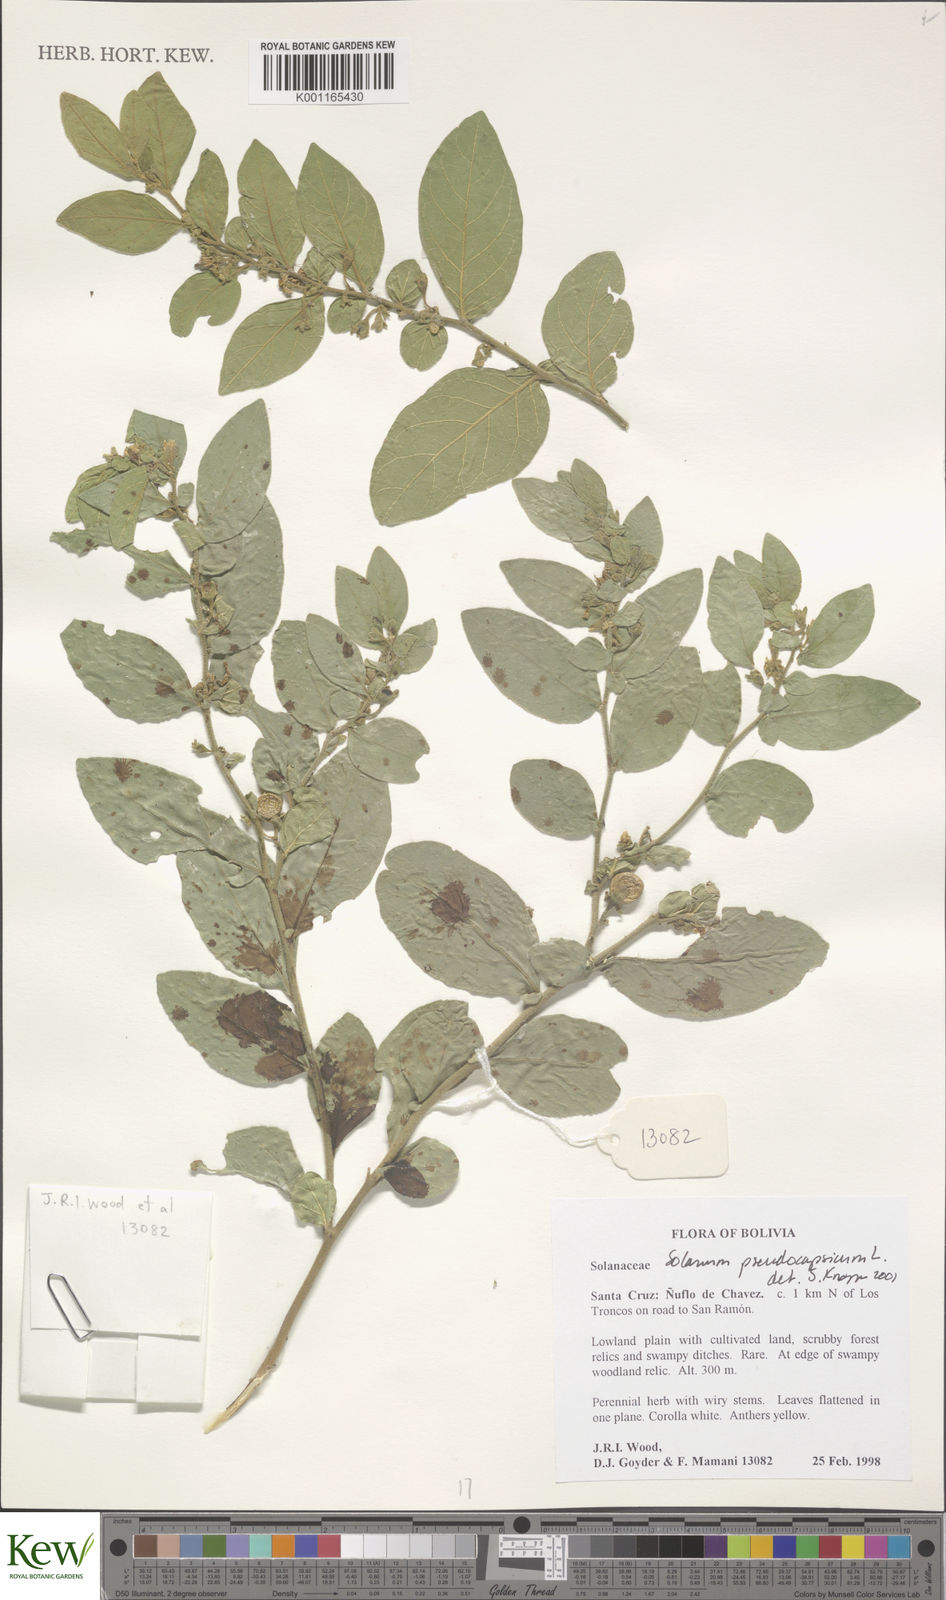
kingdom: Plantae
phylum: Tracheophyta
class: Magnoliopsida
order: Solanales
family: Solanaceae
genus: Solanum
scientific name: Solanum pseudocapsicum
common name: Jerusalem cherry
